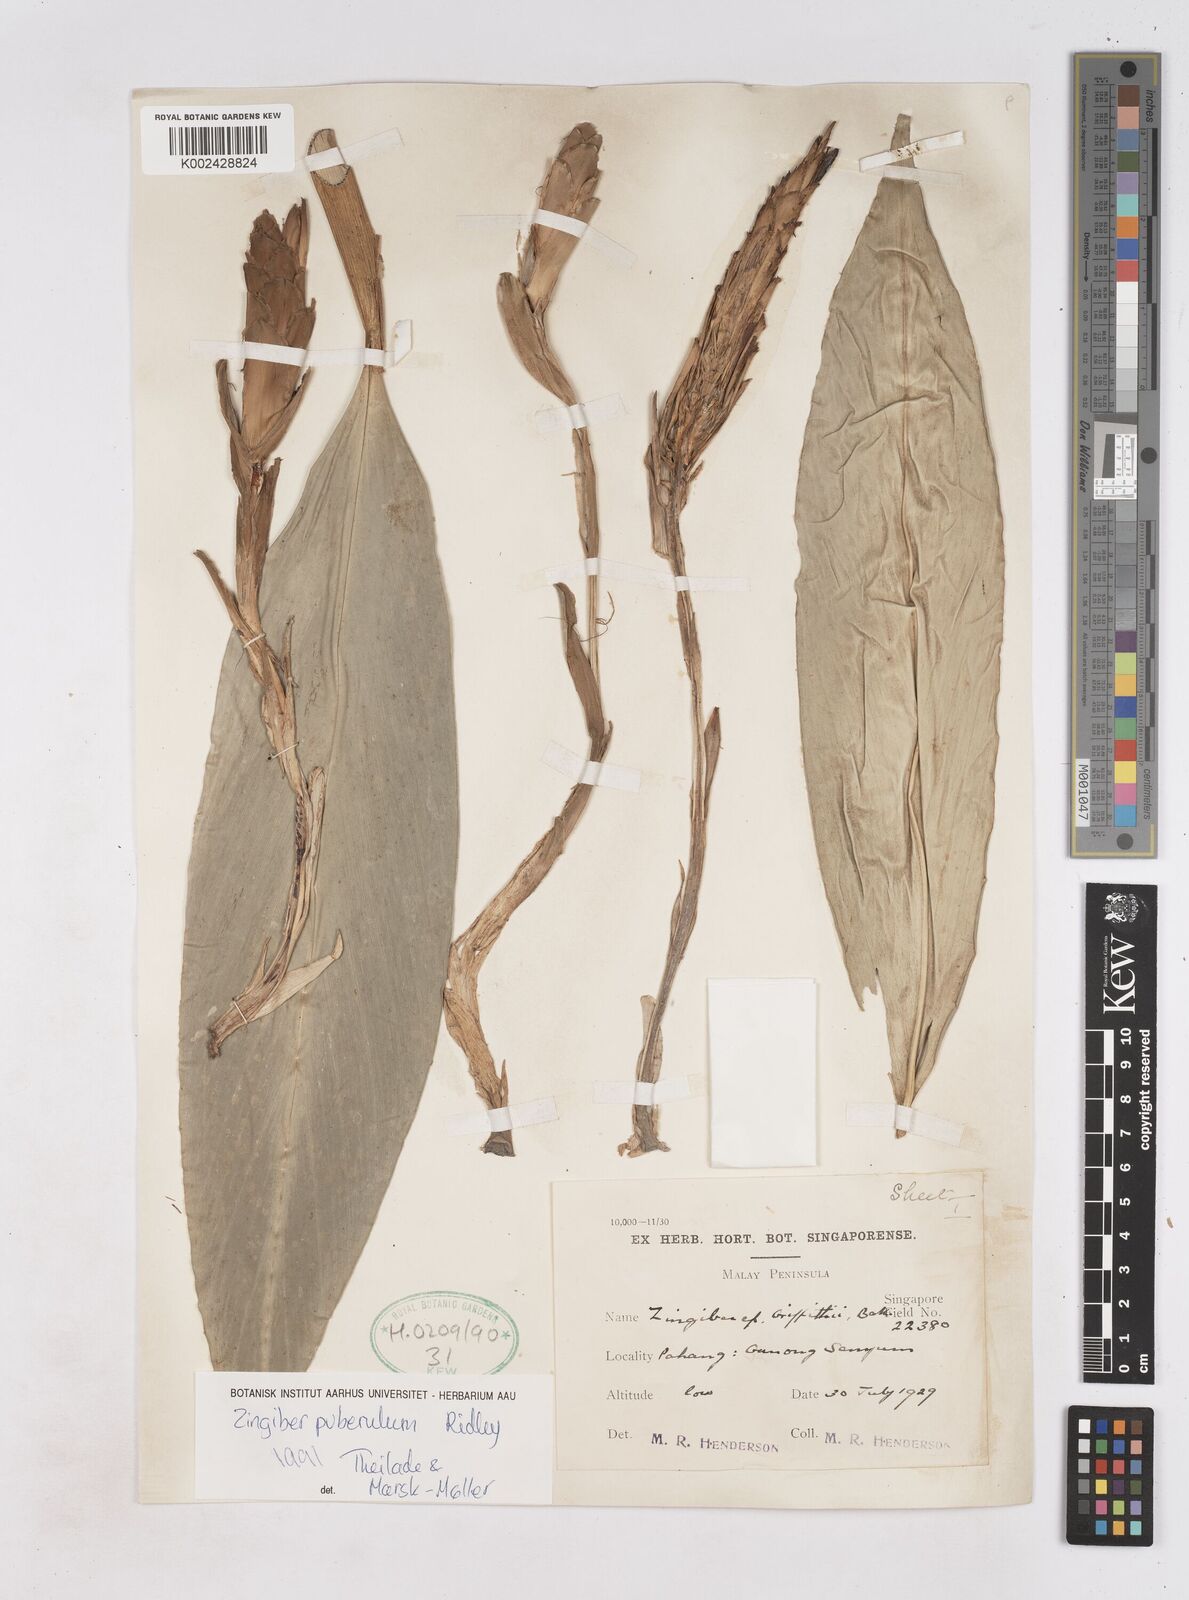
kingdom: Plantae
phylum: Tracheophyta
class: Liliopsida
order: Zingiberales
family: Zingiberaceae
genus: Zingiber
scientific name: Zingiber puberulum
